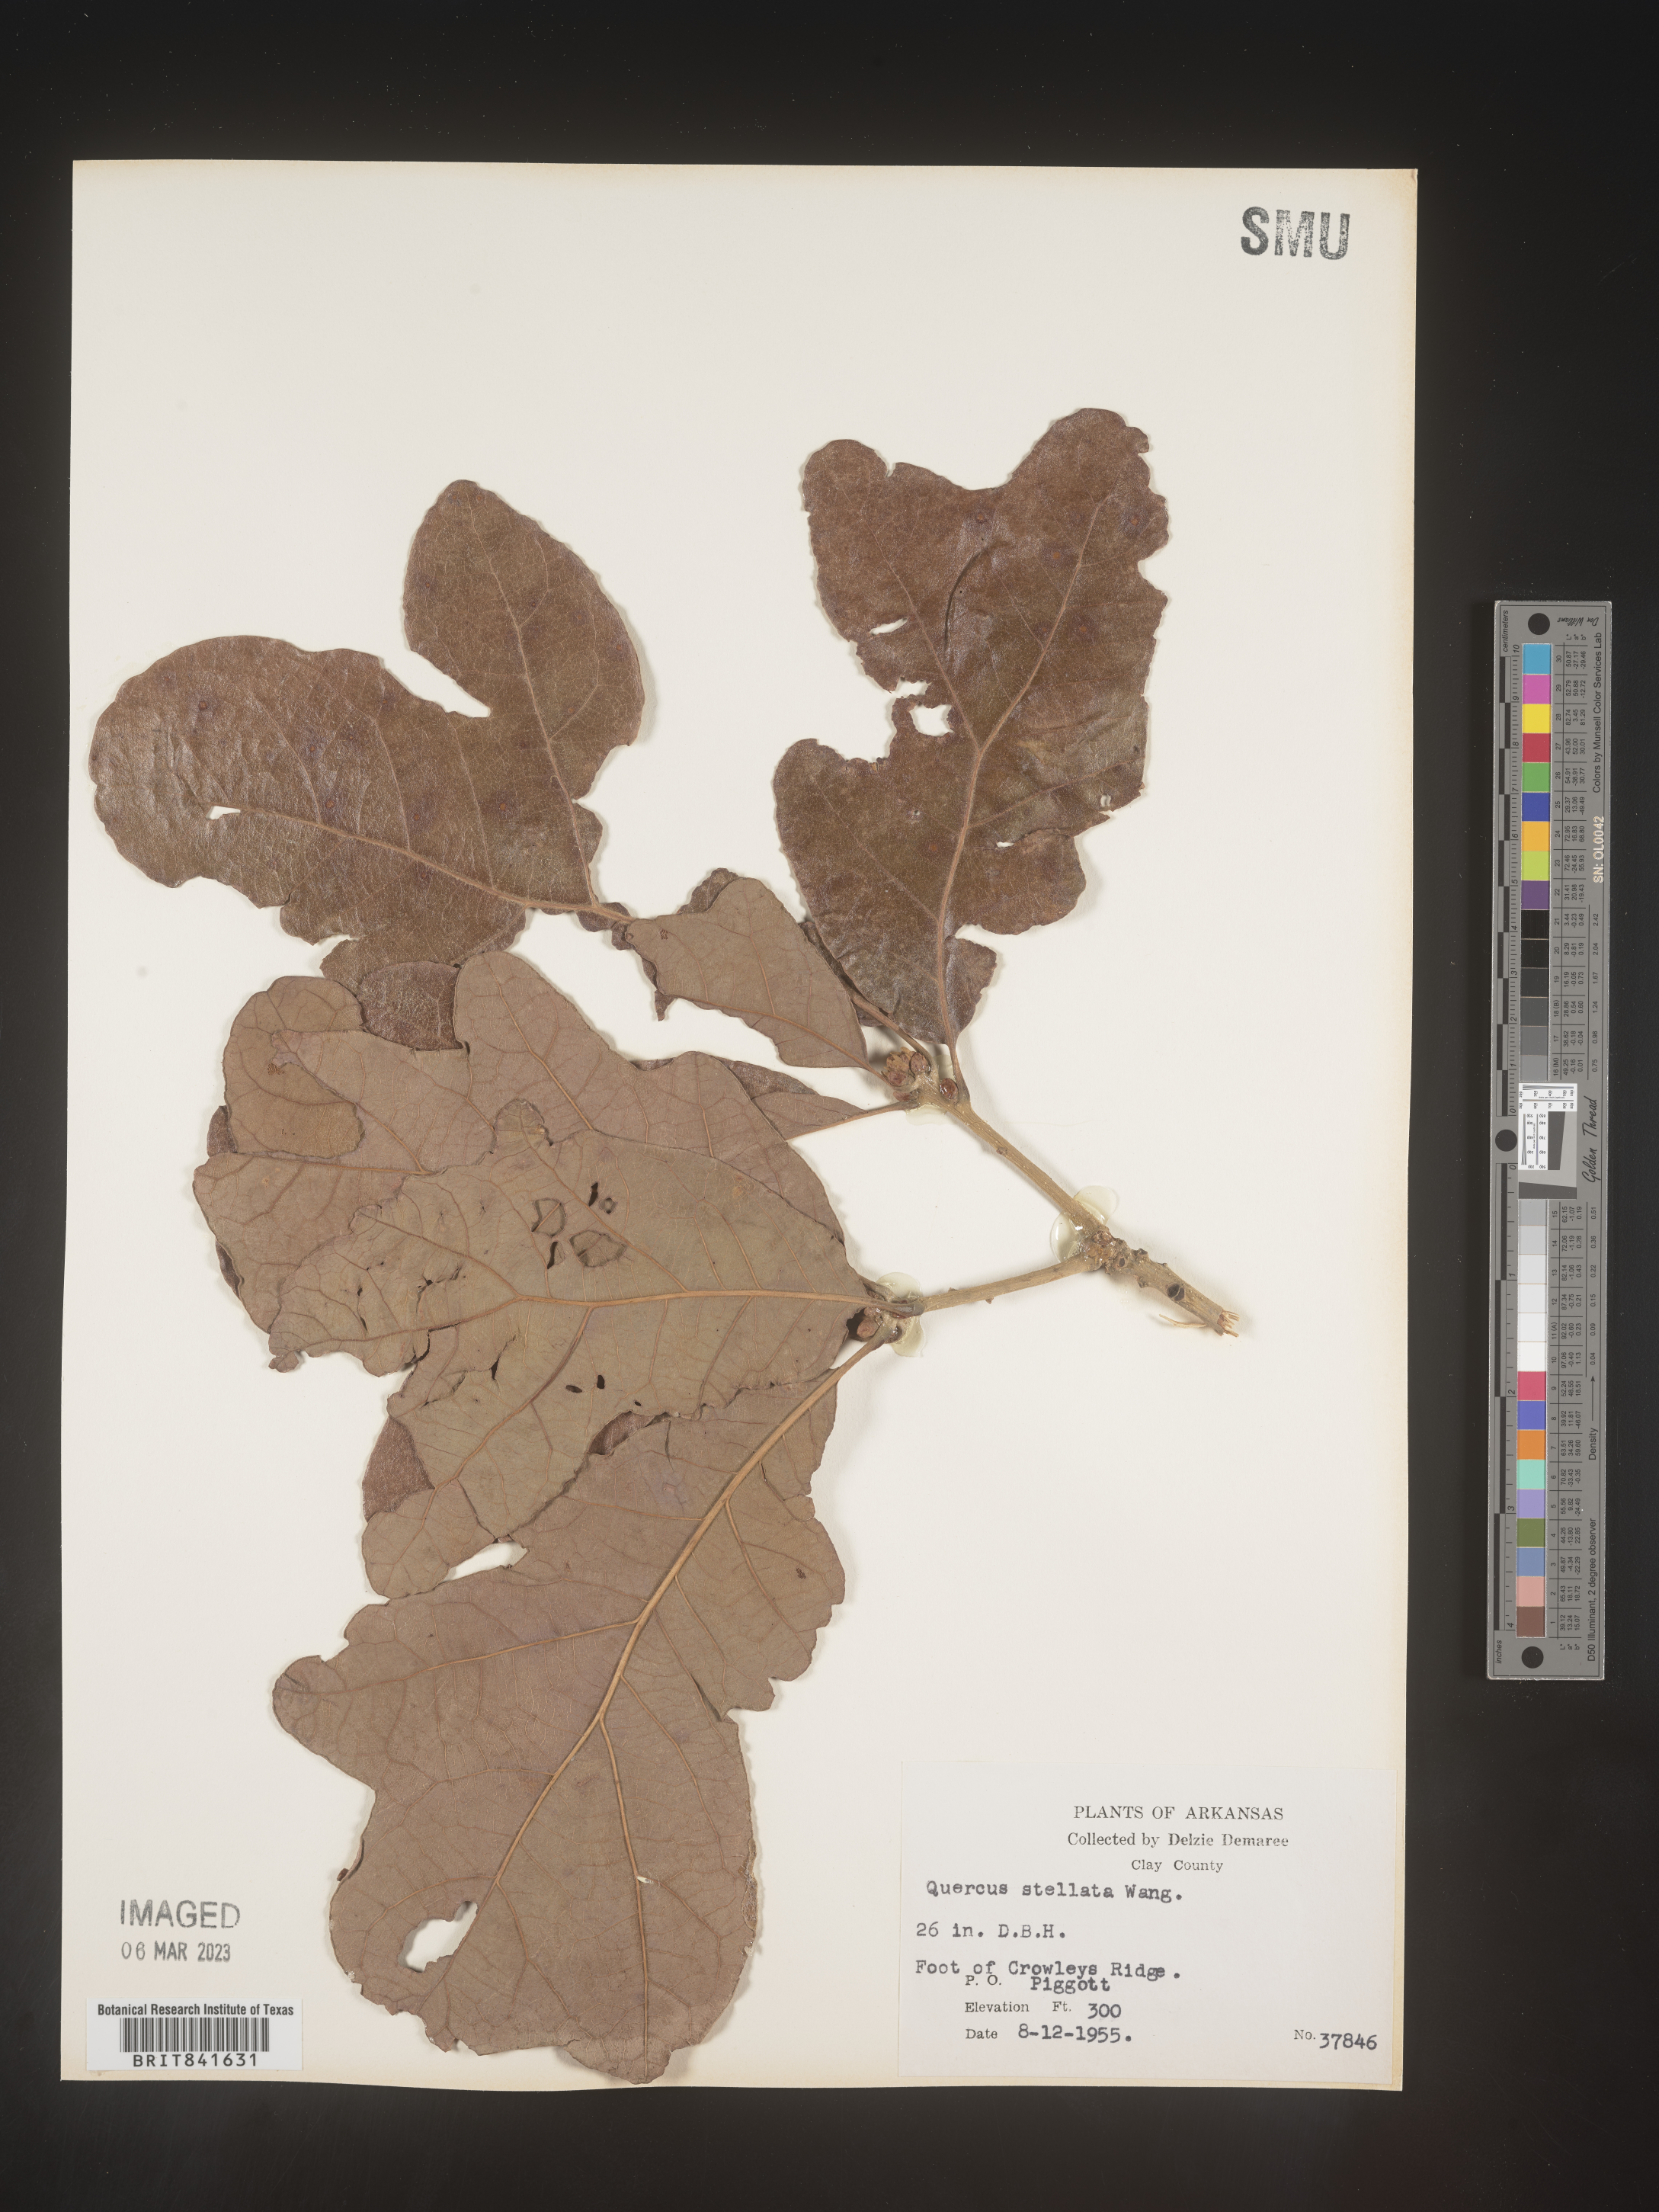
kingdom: Plantae
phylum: Tracheophyta
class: Magnoliopsida
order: Fagales
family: Fagaceae
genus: Quercus
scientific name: Quercus stellata
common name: Post oak
